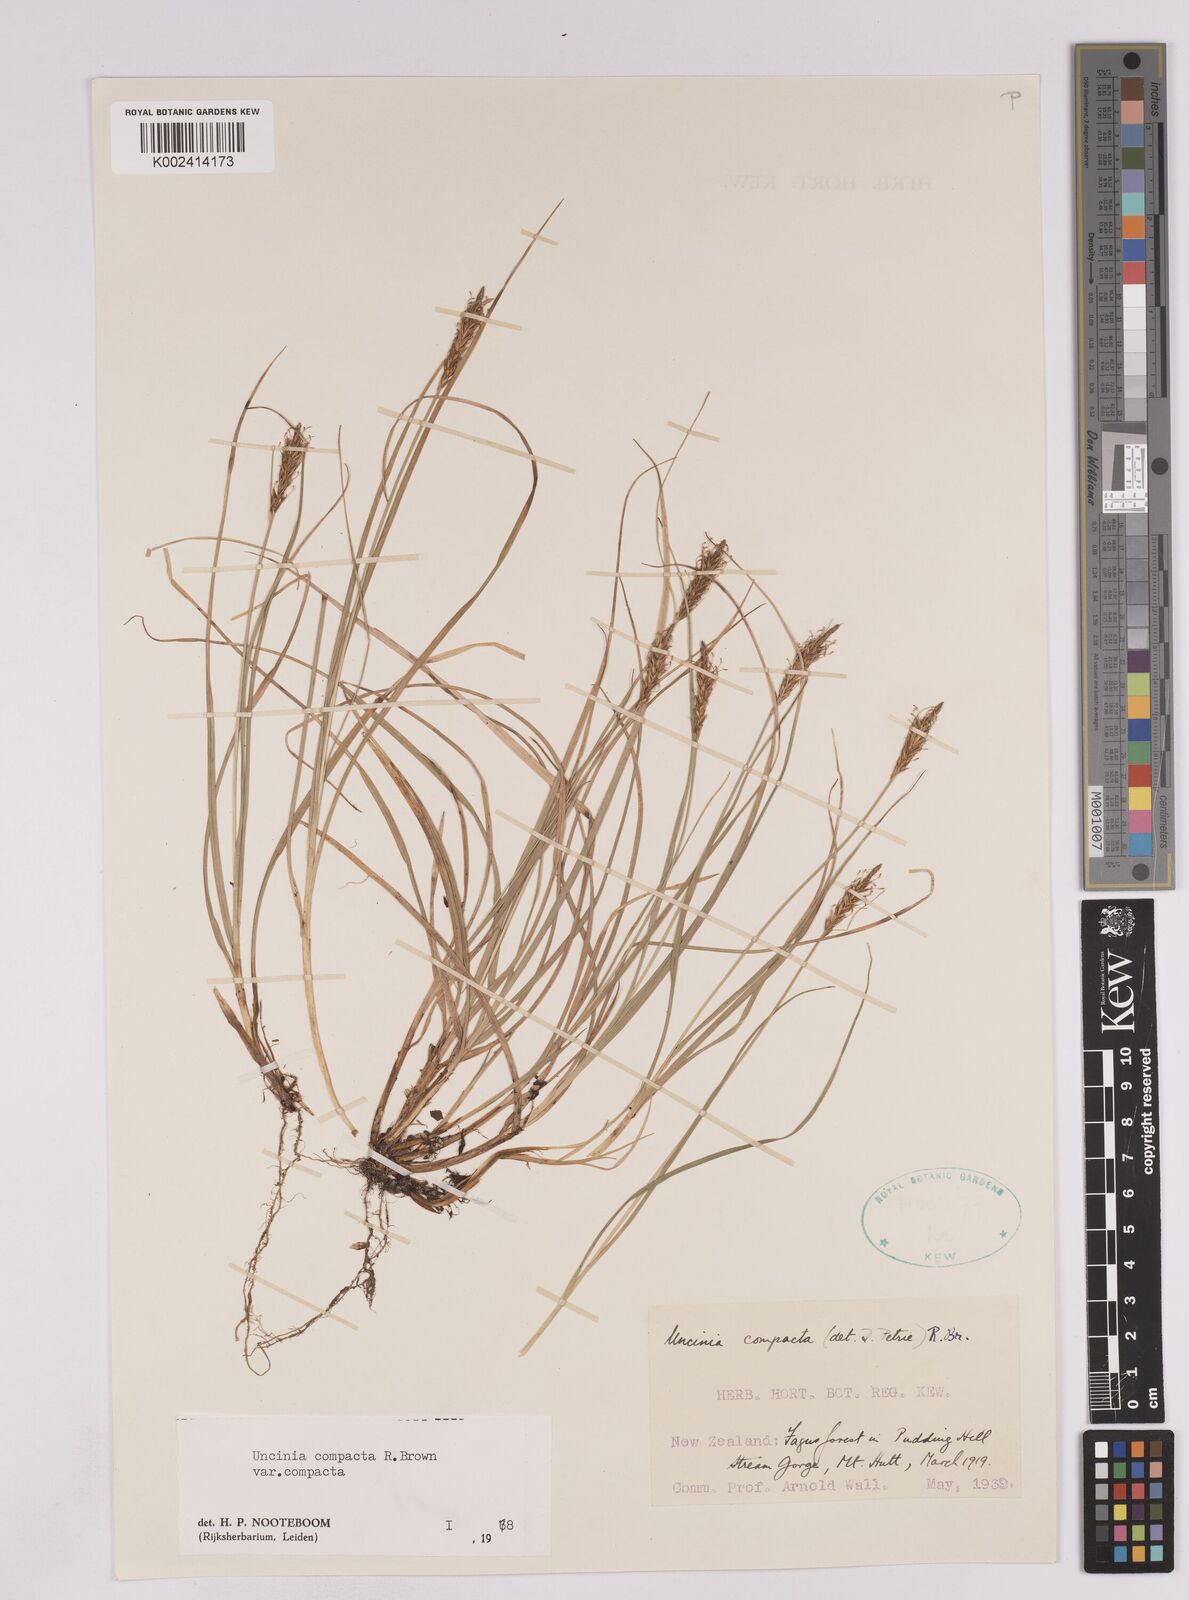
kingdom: Plantae
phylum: Tracheophyta
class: Liliopsida
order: Poales
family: Cyperaceae
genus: Carex
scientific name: Carex austrocompacta
